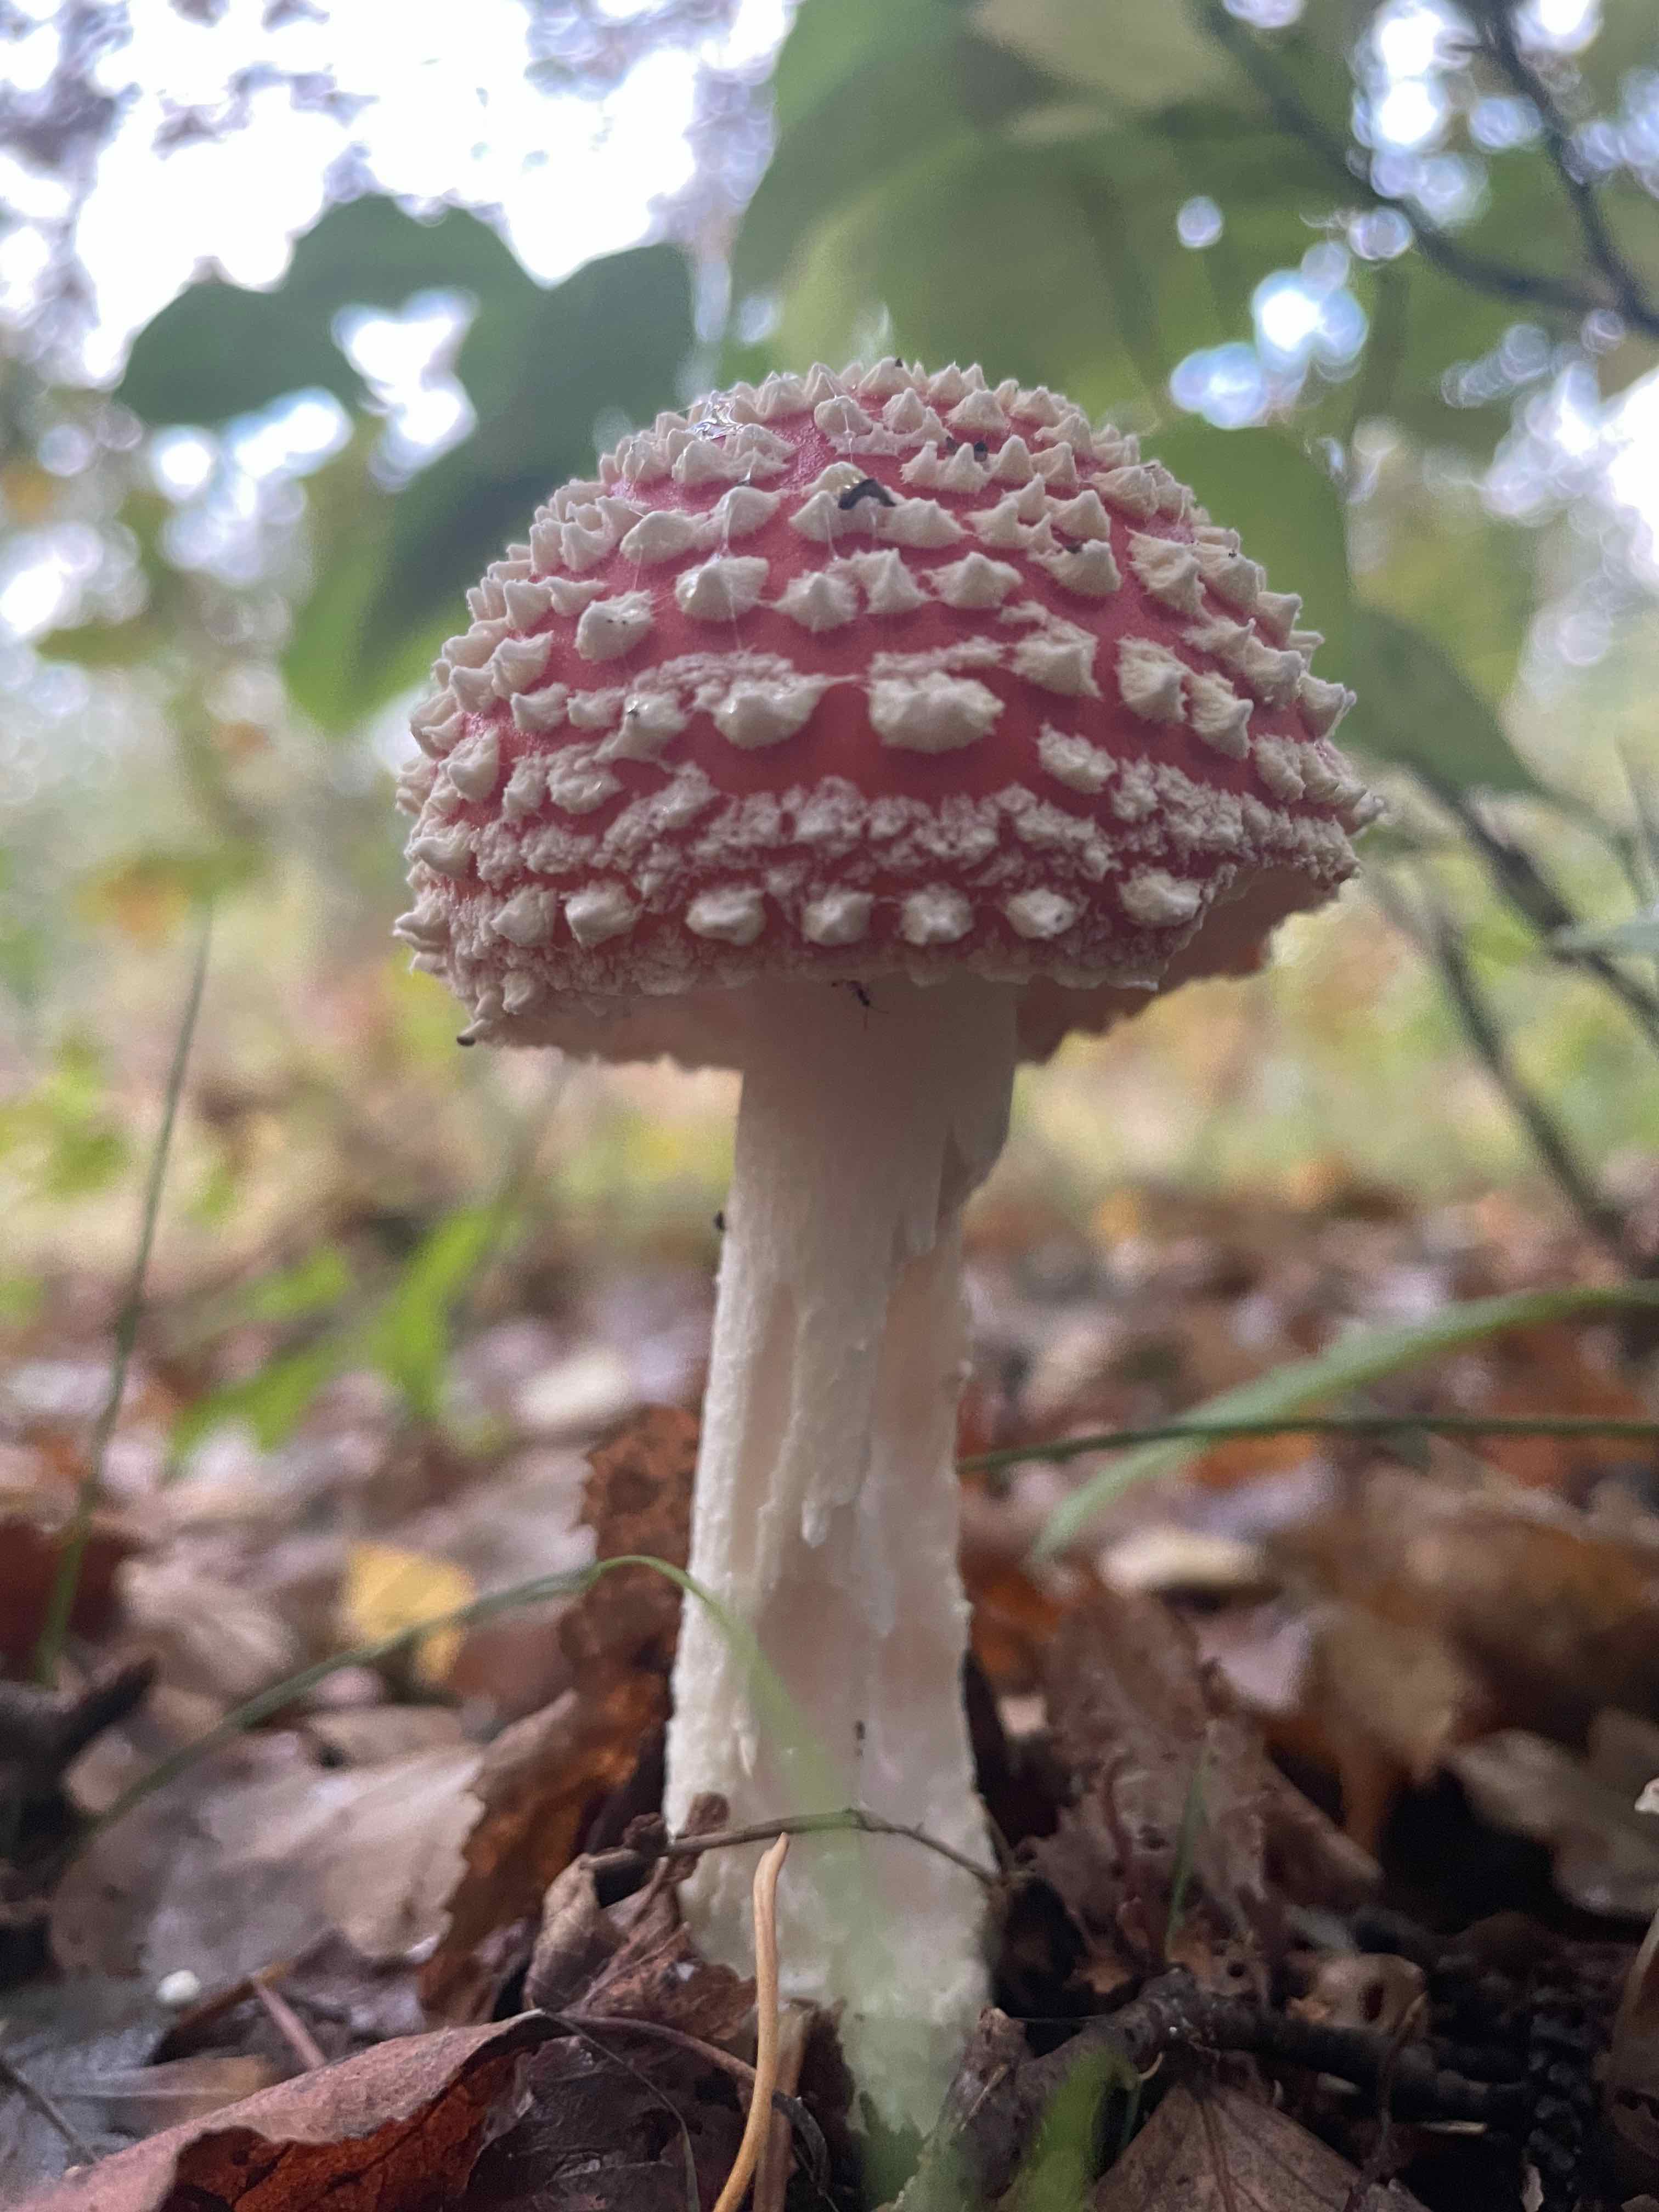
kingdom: Fungi
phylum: Basidiomycota
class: Agaricomycetes
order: Agaricales
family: Amanitaceae
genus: Amanita
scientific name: Amanita muscaria
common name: rød fluesvamp
